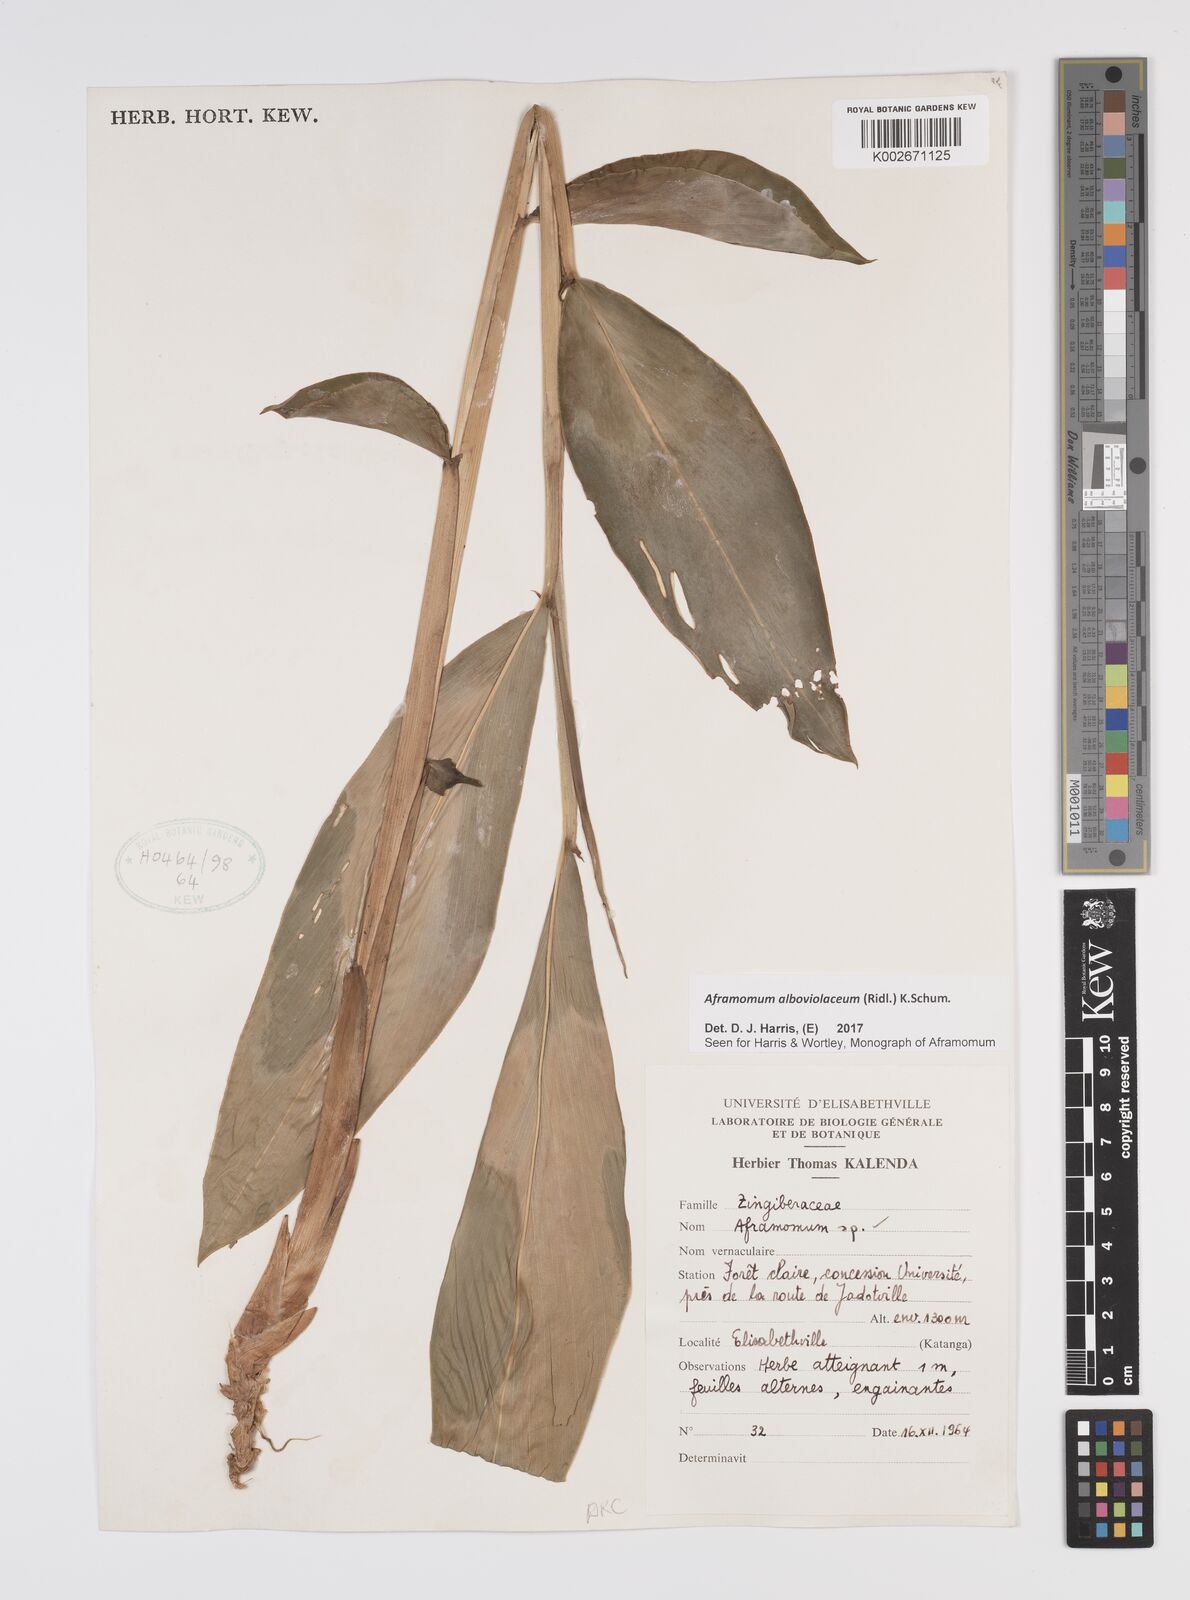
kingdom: Plantae
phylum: Tracheophyta
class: Liliopsida
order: Zingiberales
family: Zingiberaceae
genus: Aframomum
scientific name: Aframomum alboviolaceum
